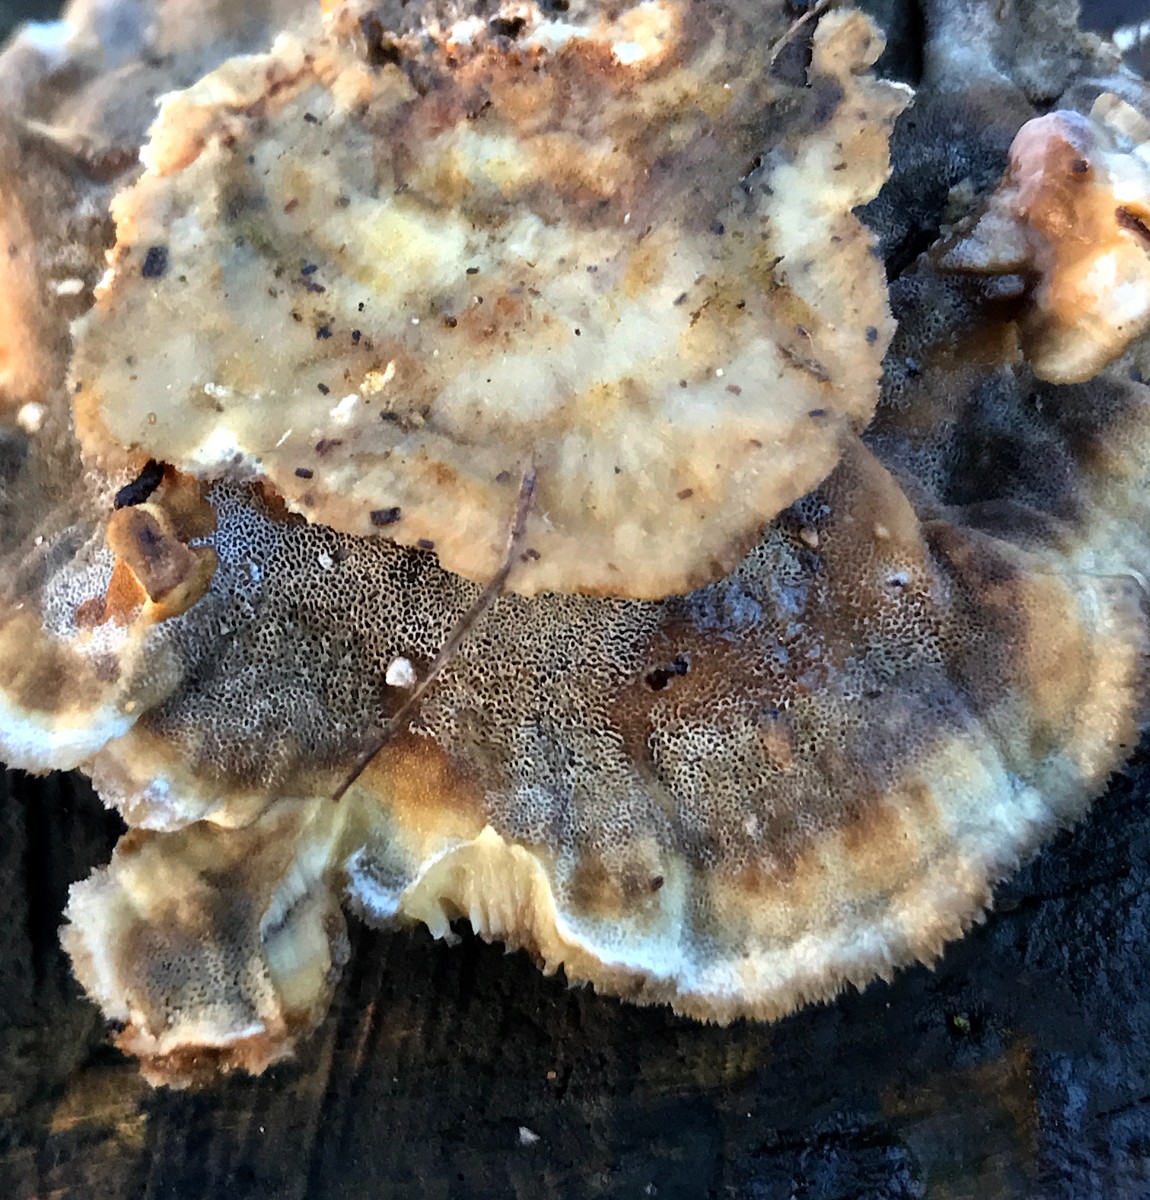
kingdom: Fungi
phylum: Basidiomycota
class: Agaricomycetes
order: Polyporales
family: Phanerochaetaceae
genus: Bjerkandera
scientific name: Bjerkandera adusta
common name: sveden sodporesvamp
